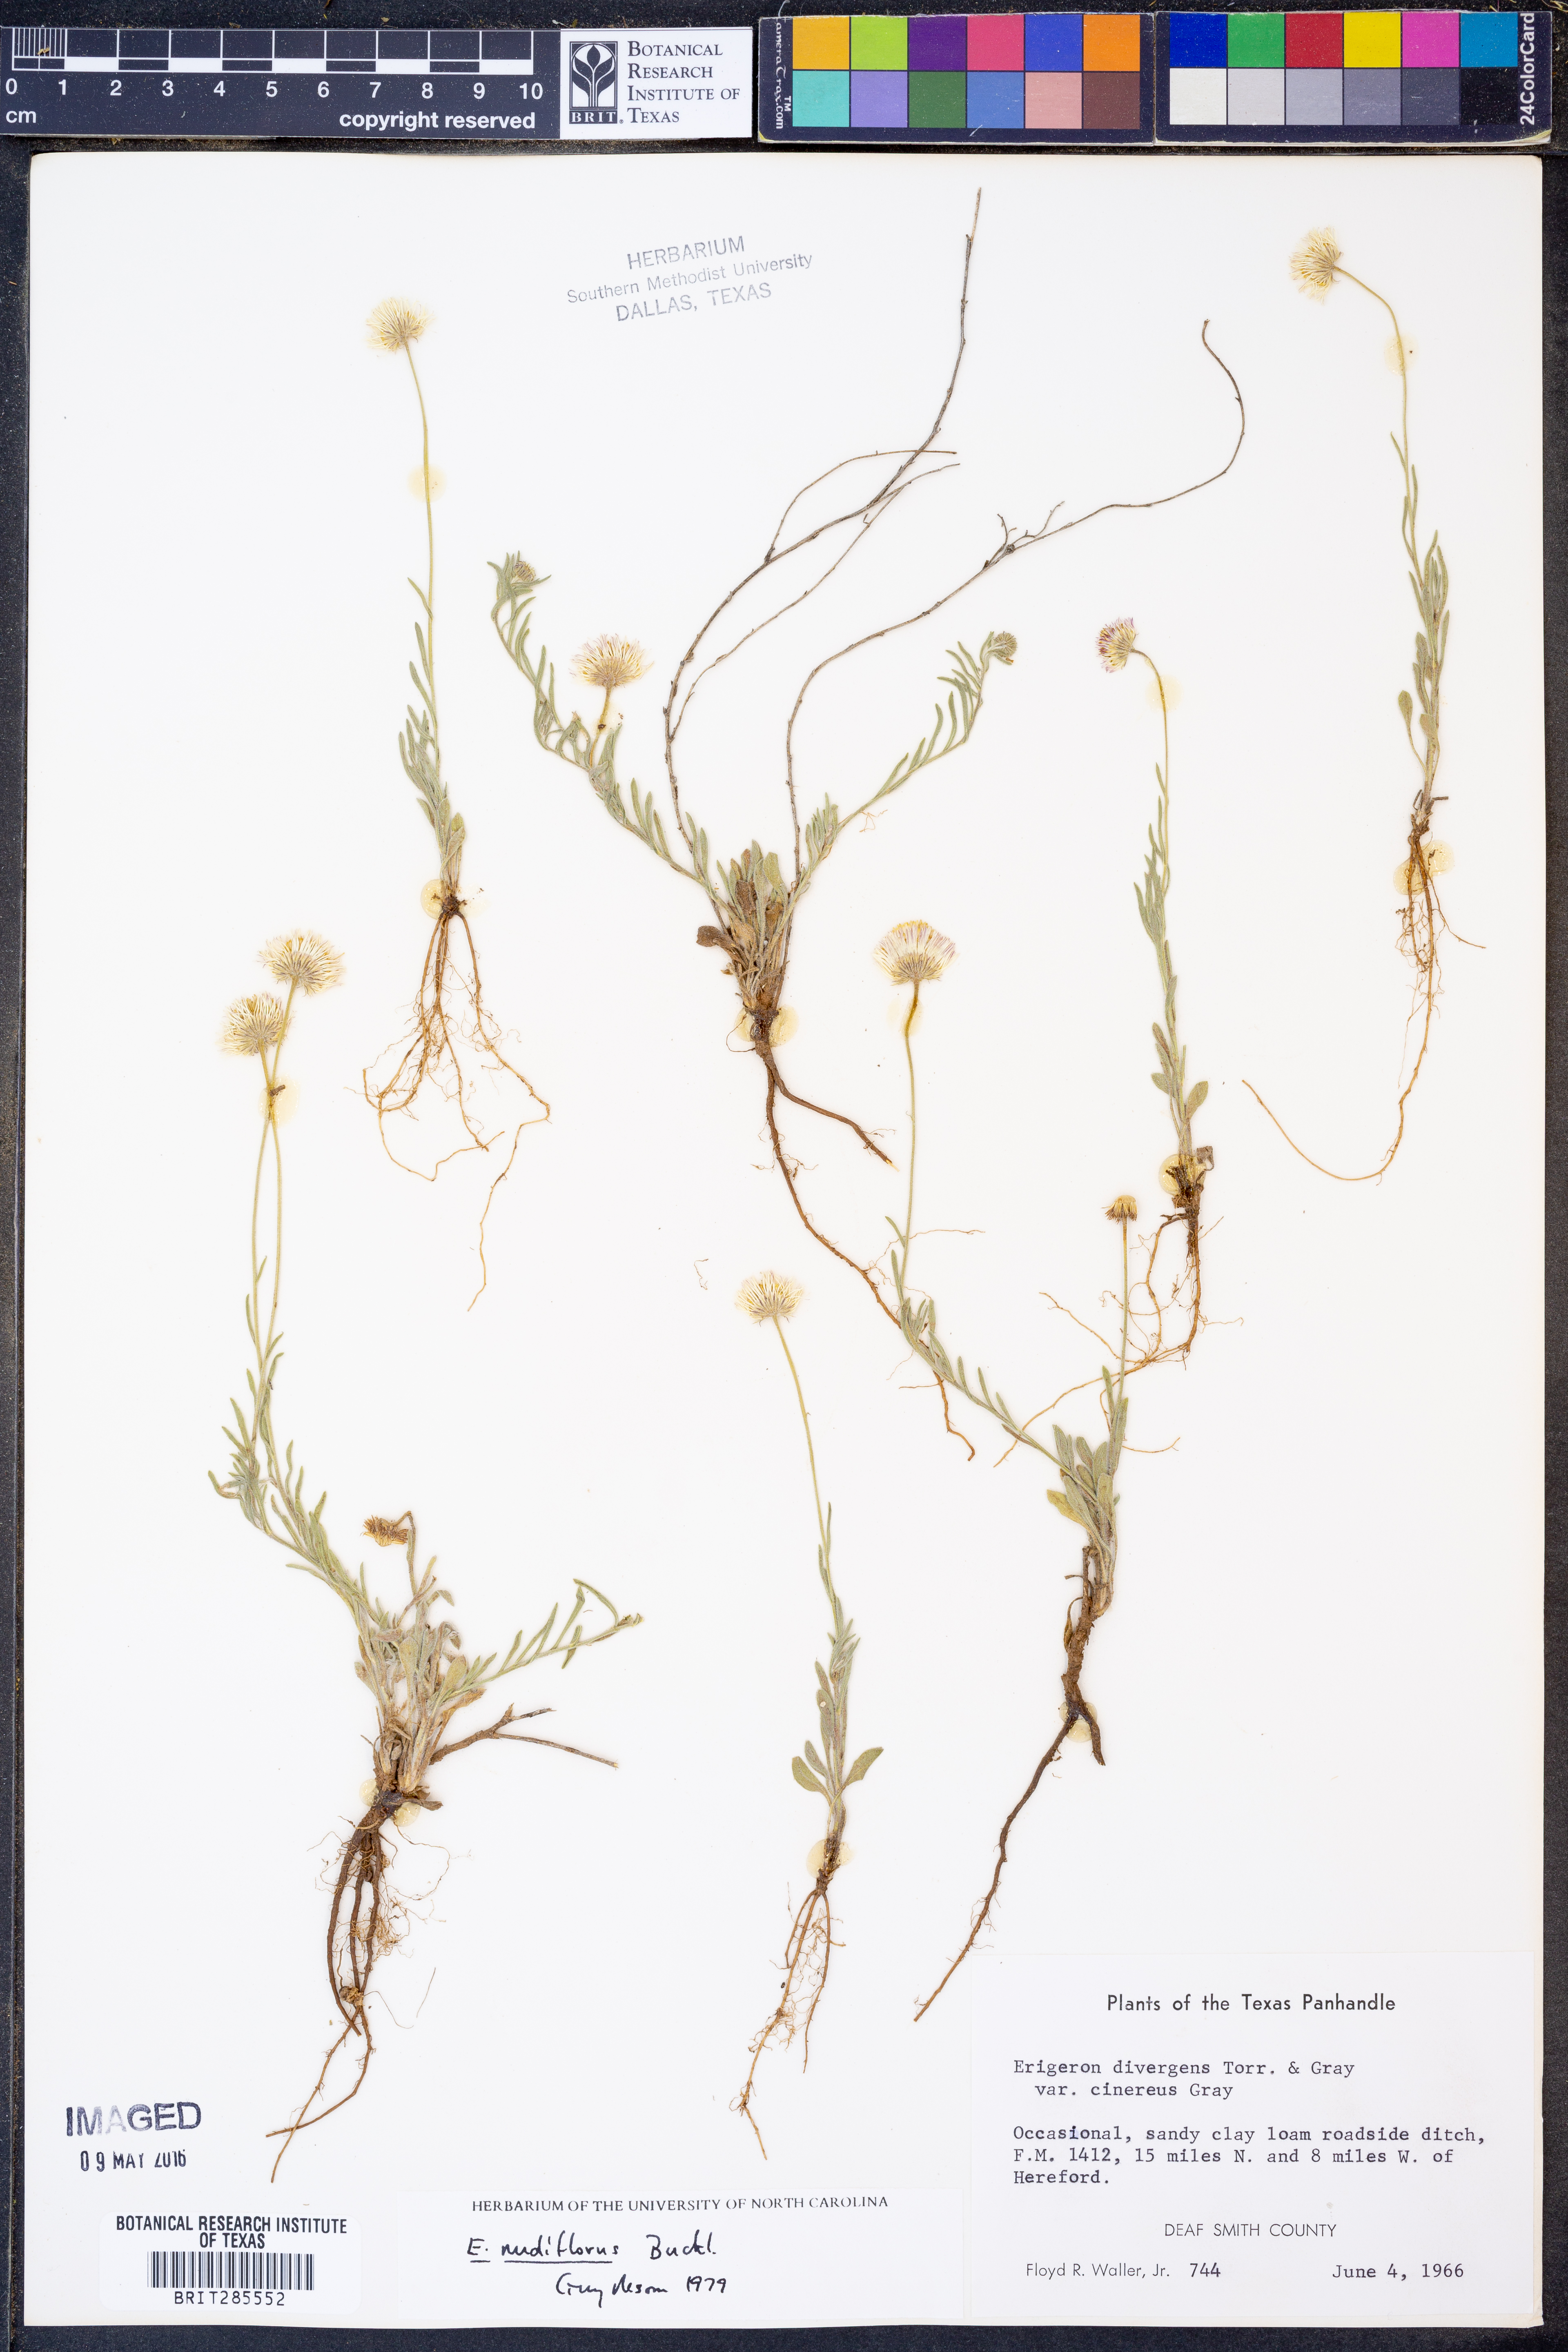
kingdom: Plantae
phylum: Tracheophyta
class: Magnoliopsida
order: Asterales
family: Asteraceae
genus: Erigeron
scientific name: Erigeron flagellaris
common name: Running fleabane
